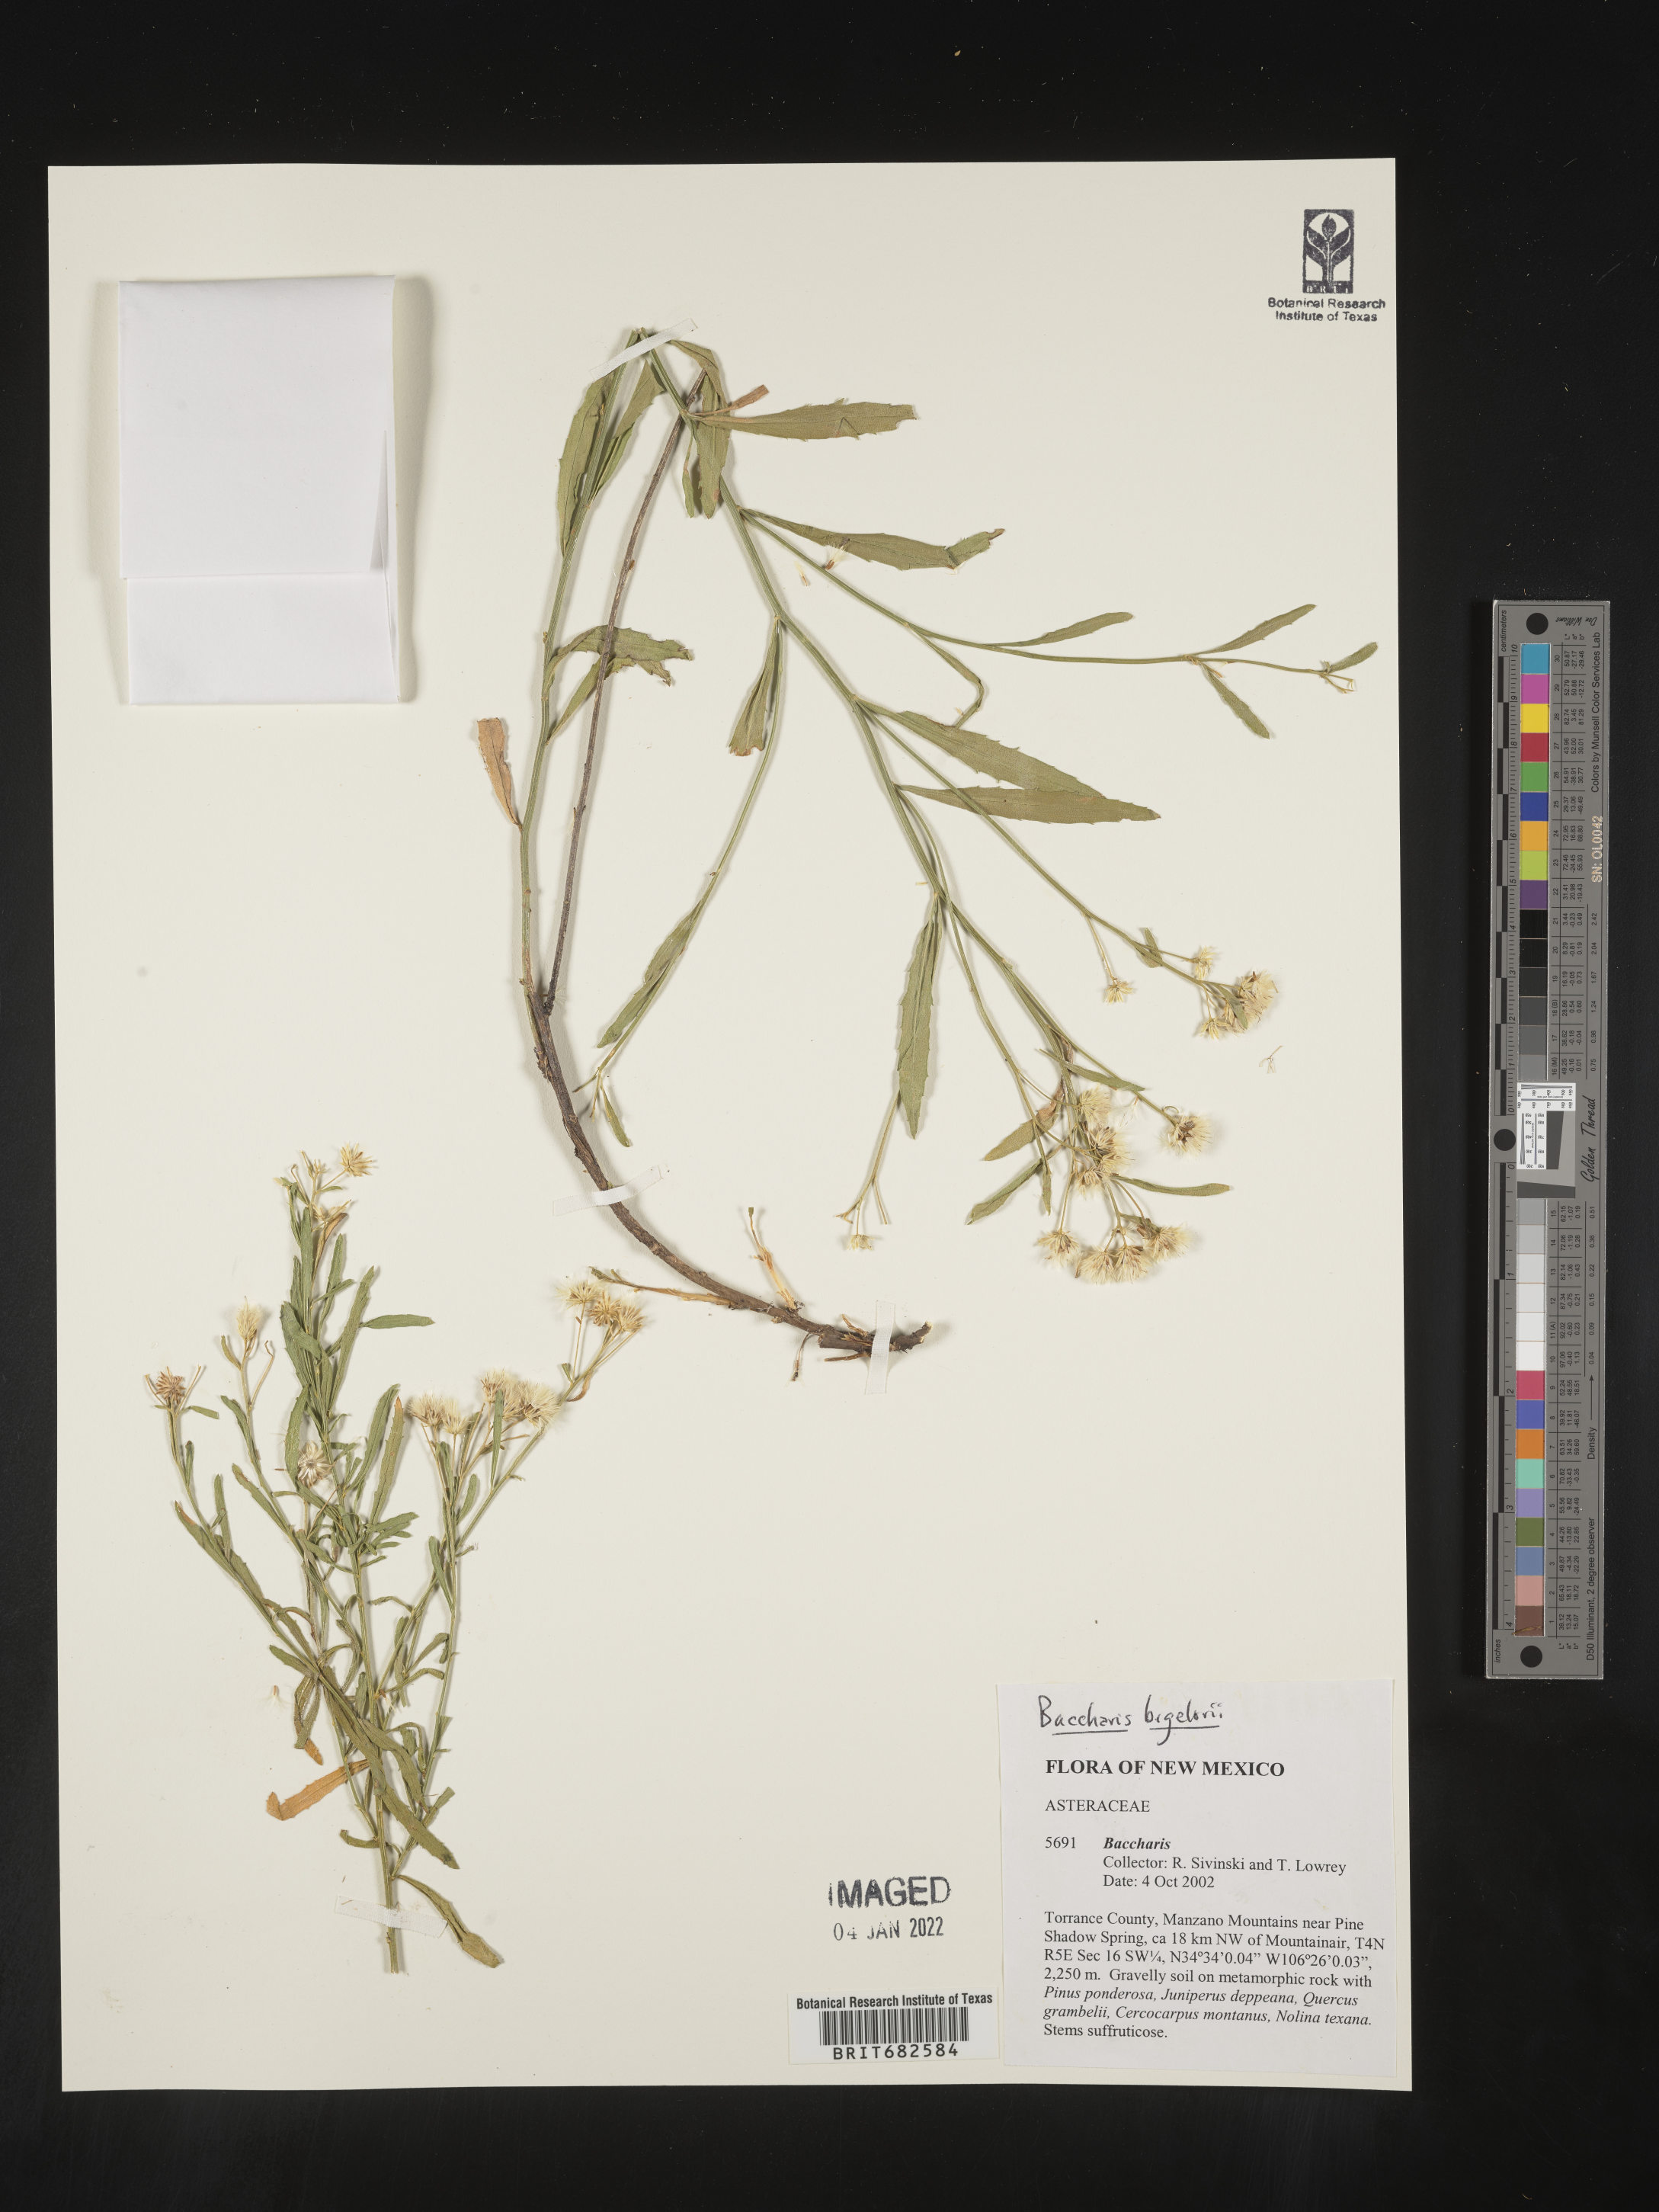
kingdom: Plantae
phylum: Tracheophyta
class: Magnoliopsida
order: Asterales
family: Asteraceae
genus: Baccharis
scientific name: Baccharis bigelovii
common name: Bigelow's false willow
